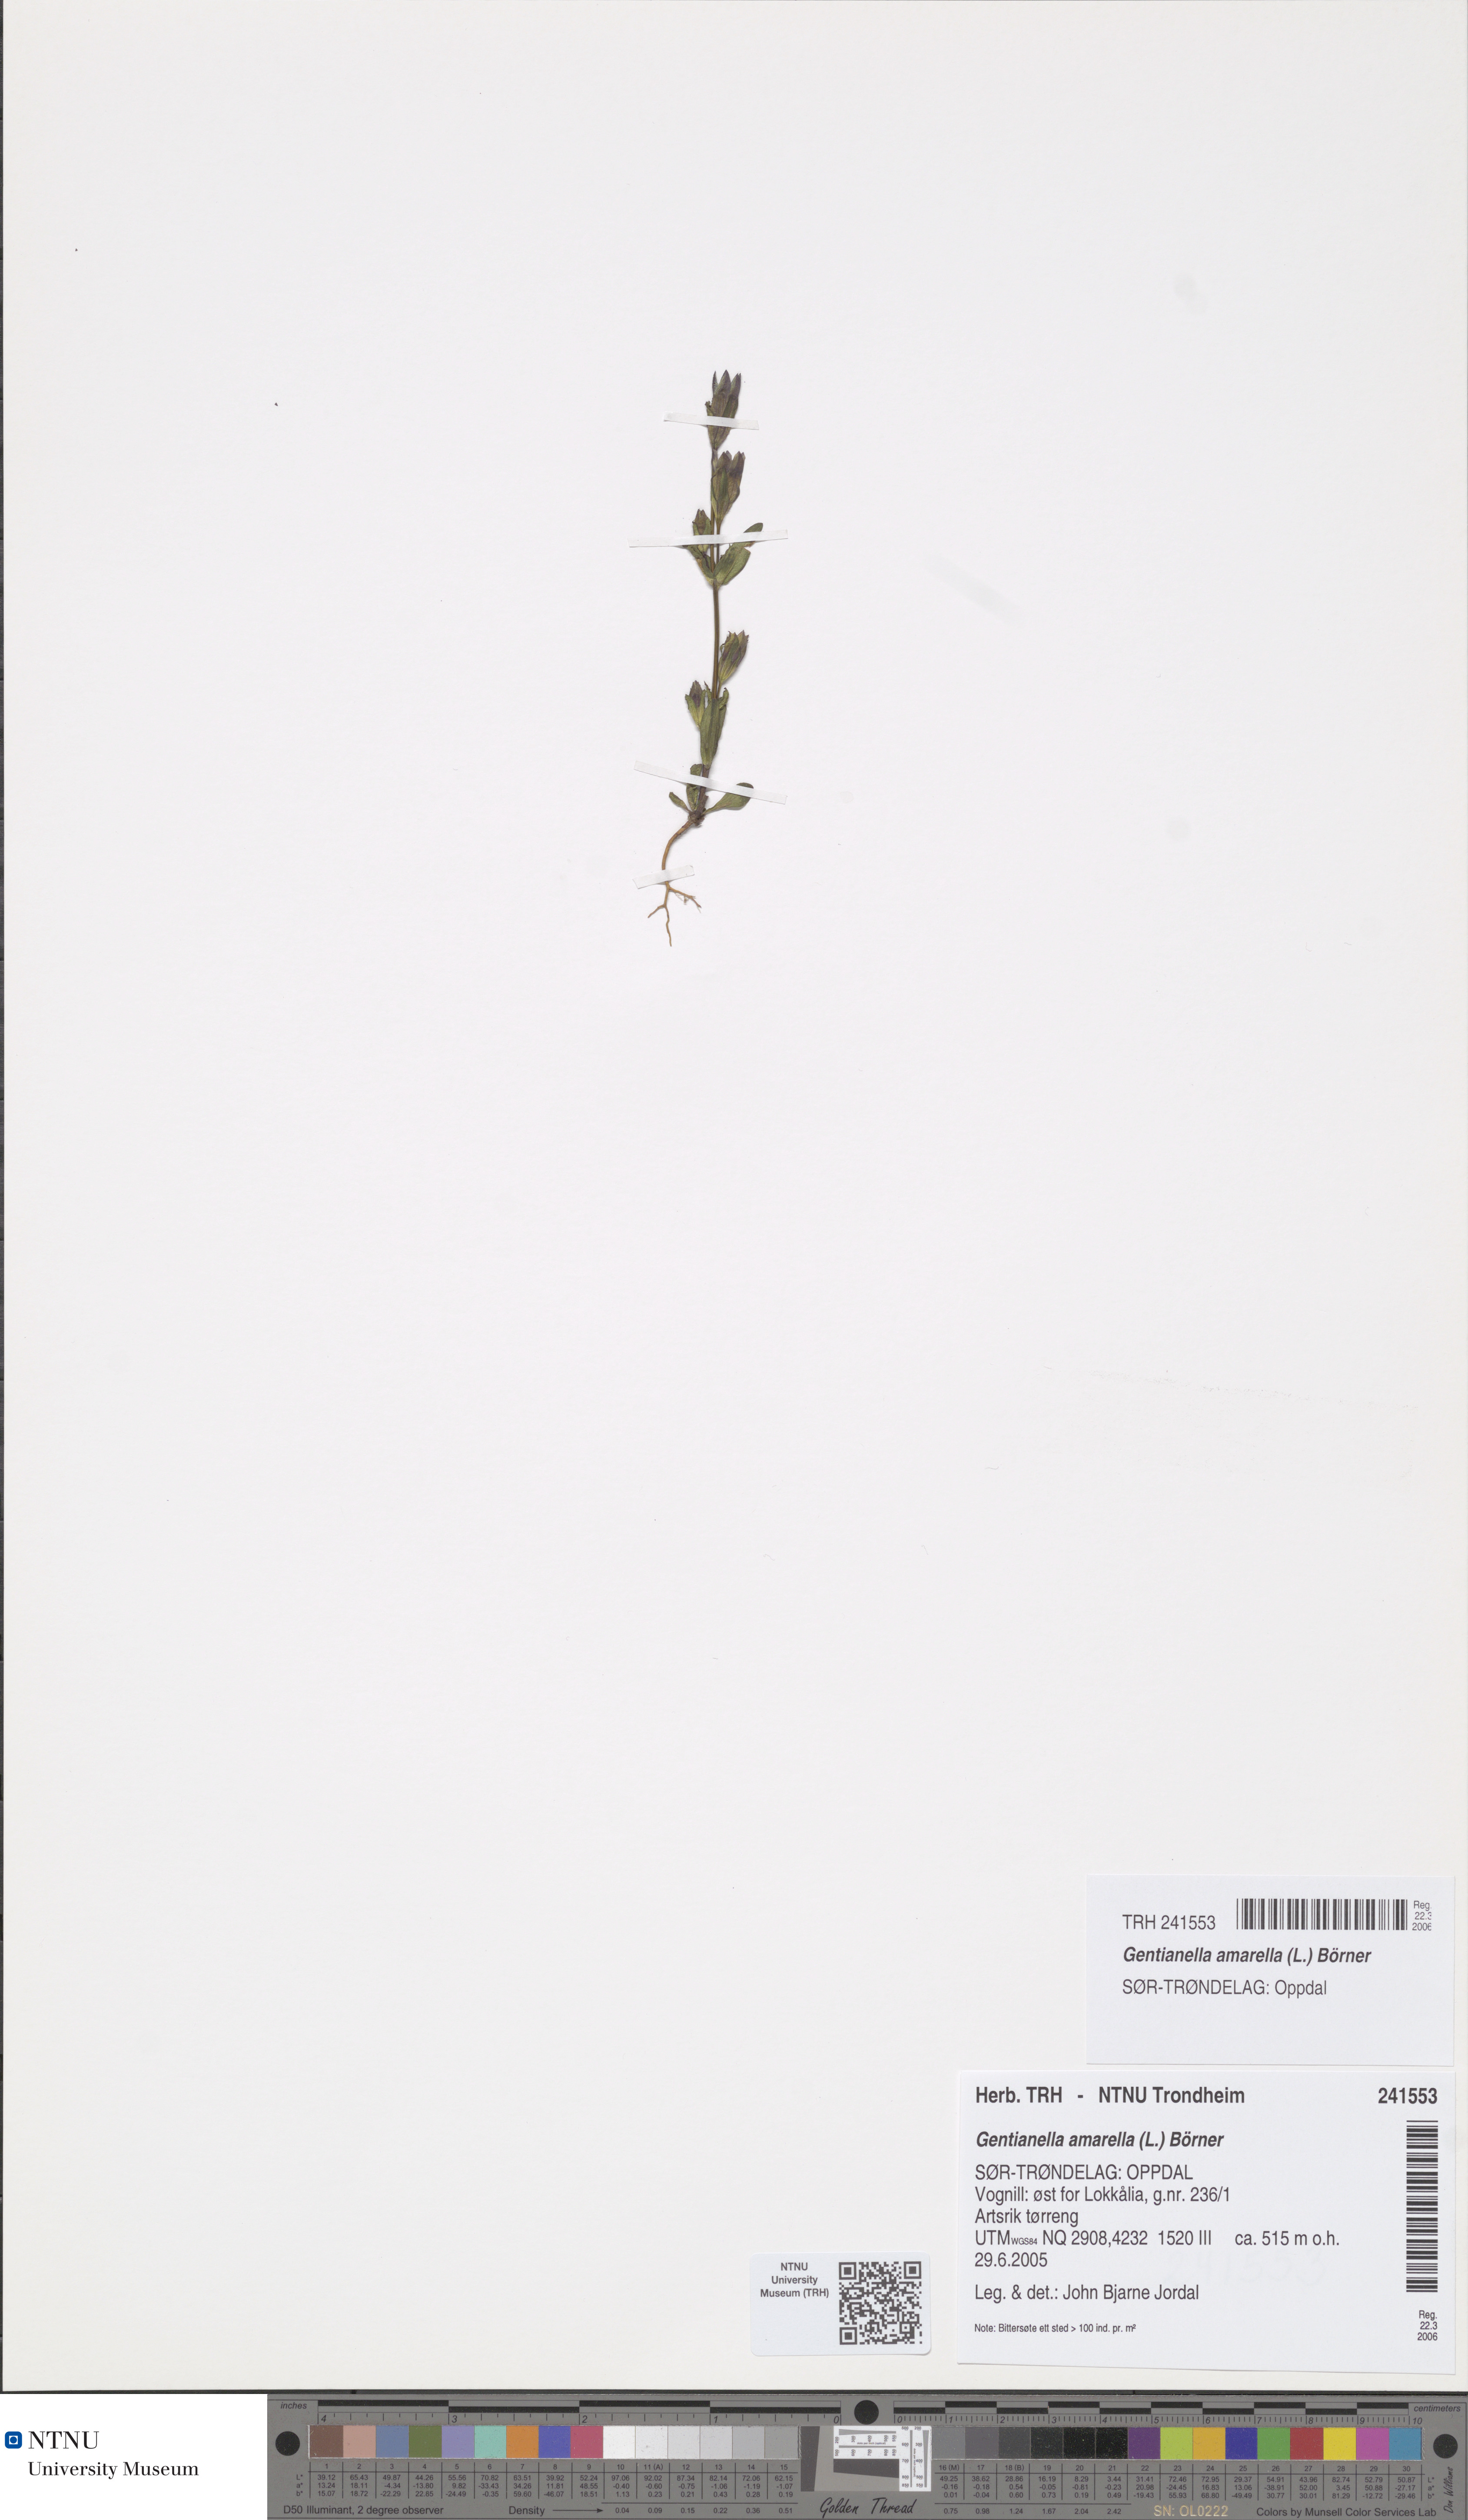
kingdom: Plantae
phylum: Tracheophyta
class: Magnoliopsida
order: Gentianales
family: Gentianaceae
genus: Gentianella
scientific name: Gentianella amarella
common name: Autumn gentian
